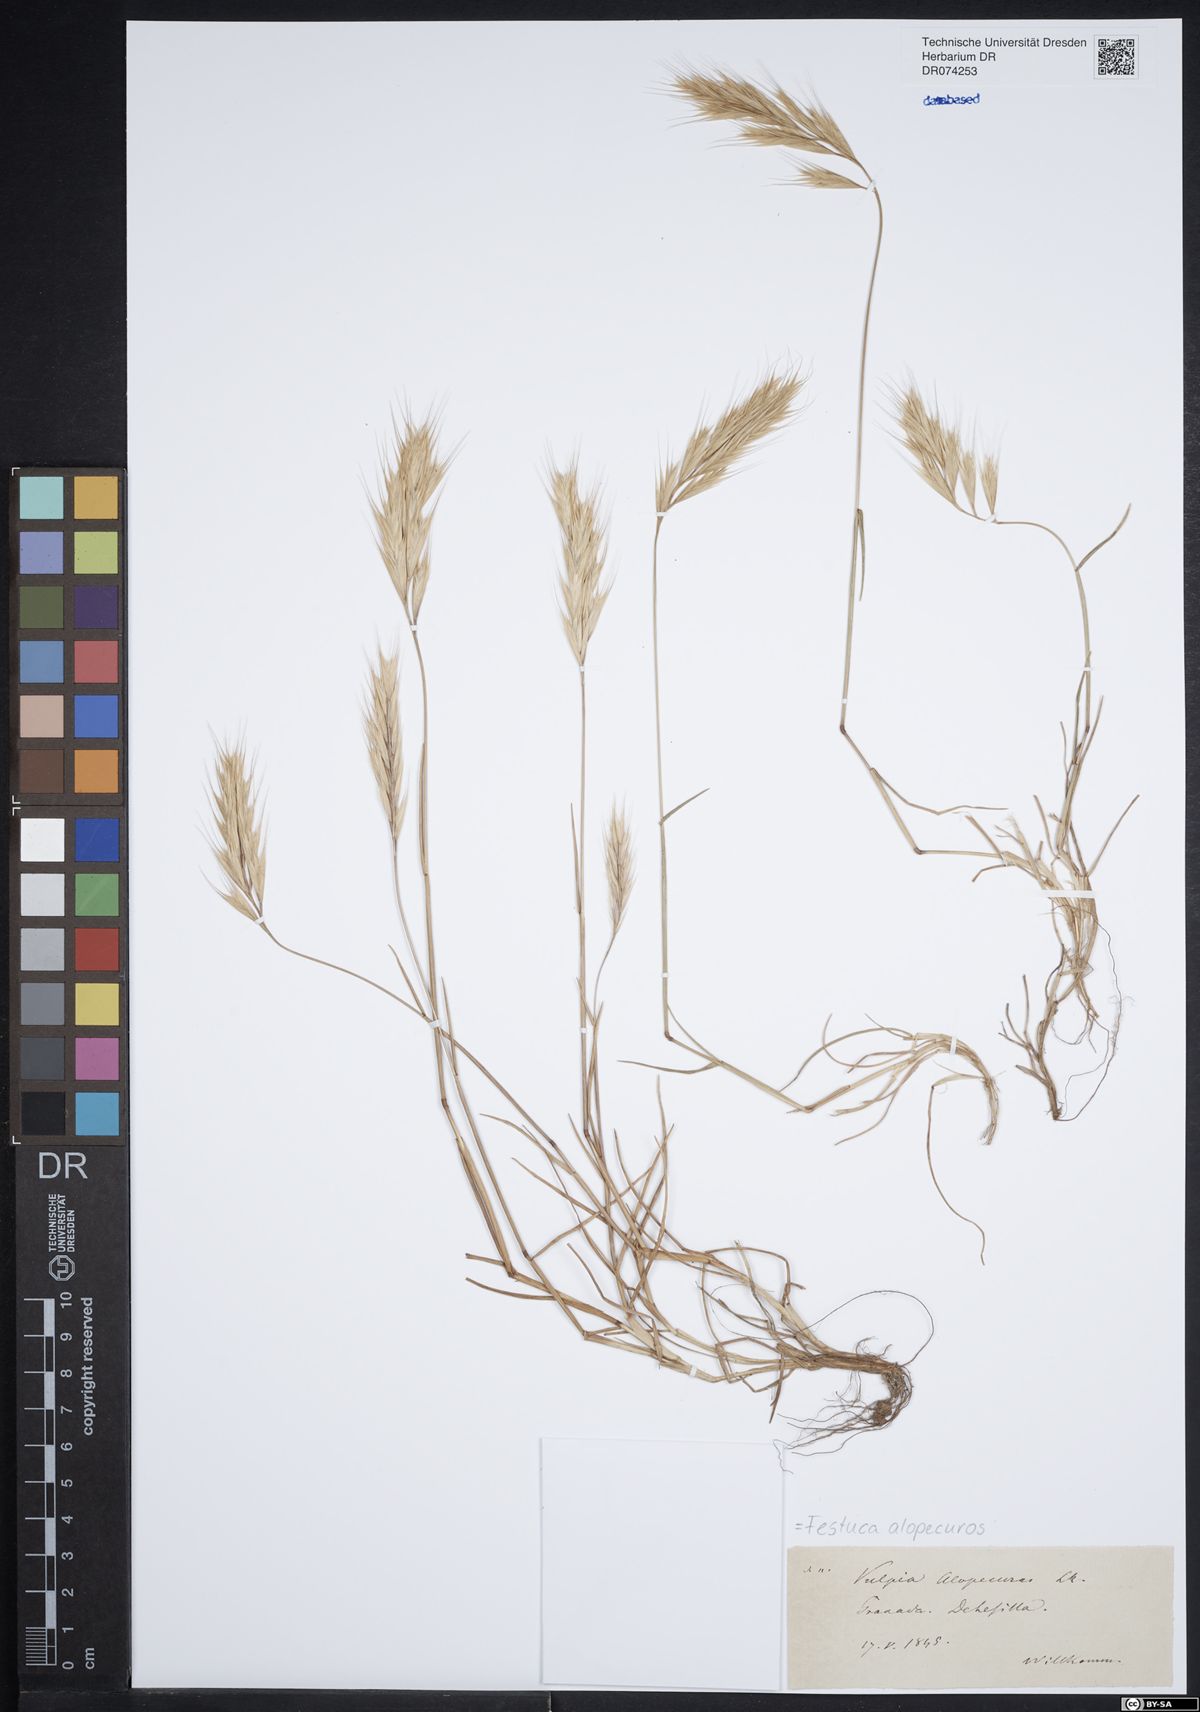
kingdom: Plantae
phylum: Tracheophyta
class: Liliopsida
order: Poales
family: Poaceae
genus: Festuca
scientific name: Festuca alopecuros
